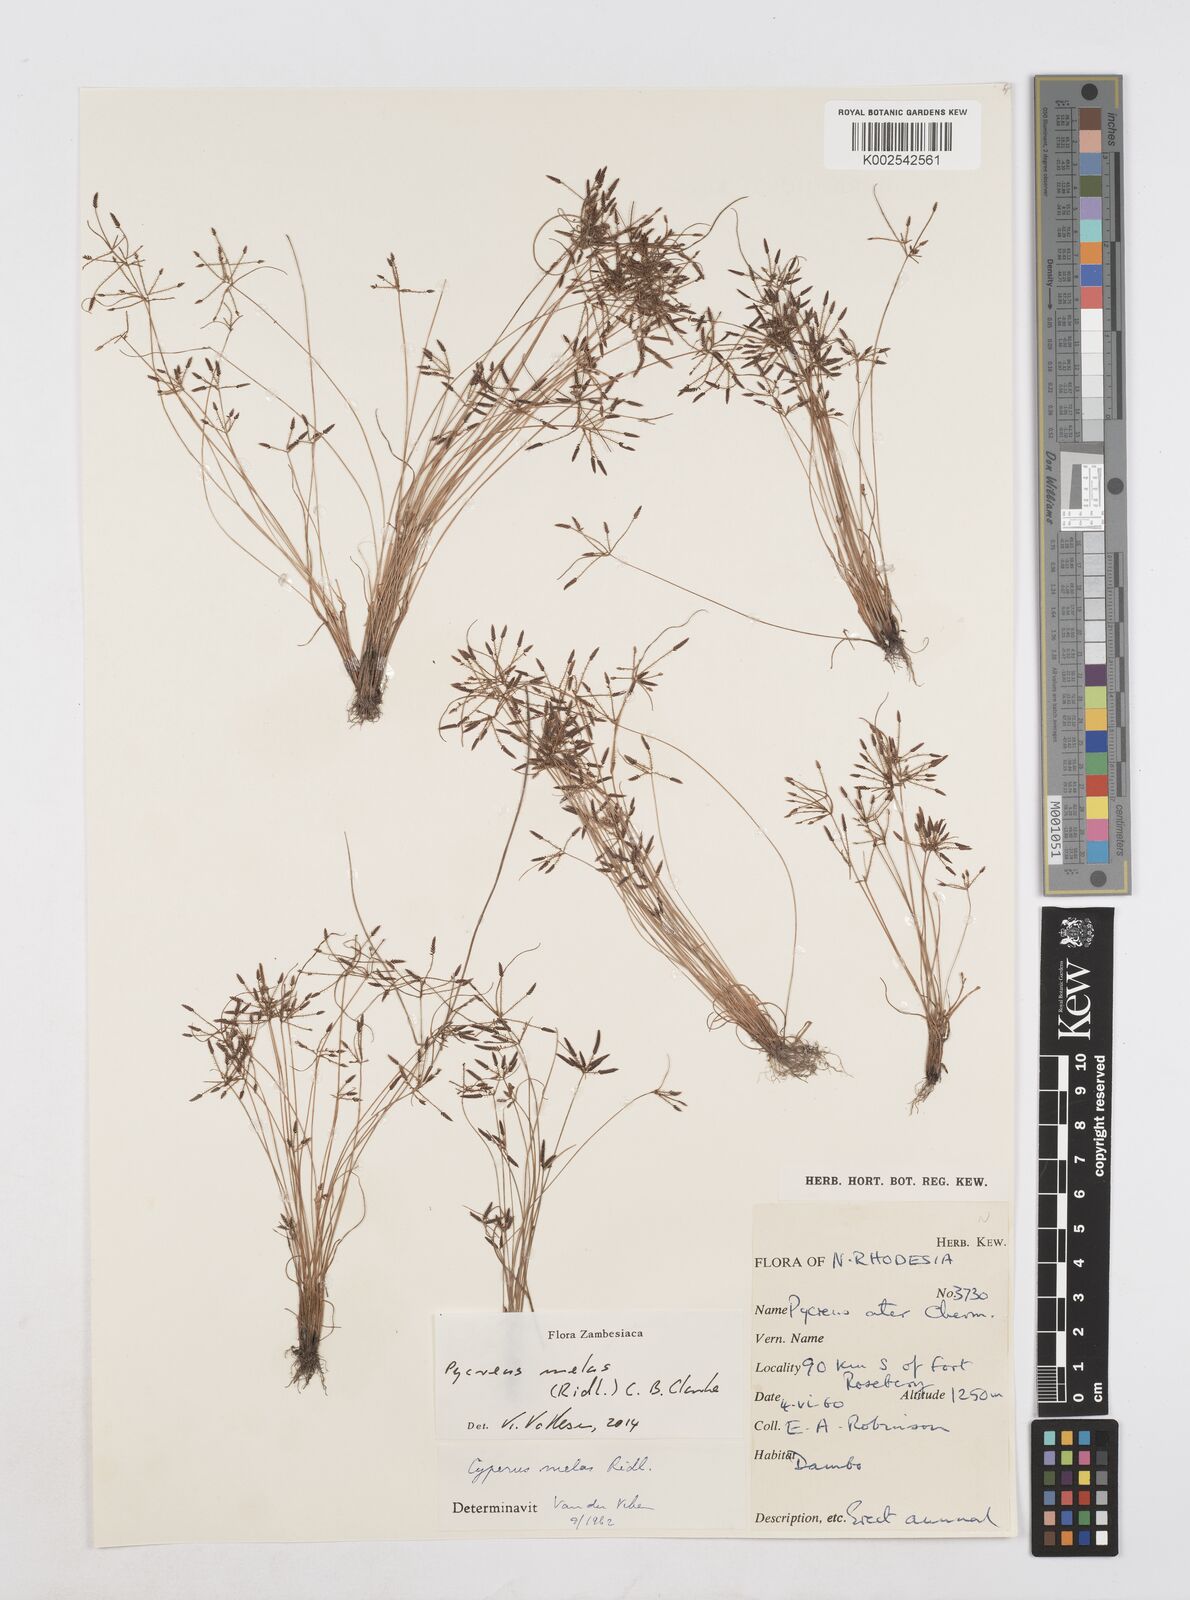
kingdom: Plantae
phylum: Tracheophyta
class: Liliopsida
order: Poales
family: Cyperaceae
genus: Cyperus
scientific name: Cyperus melas
